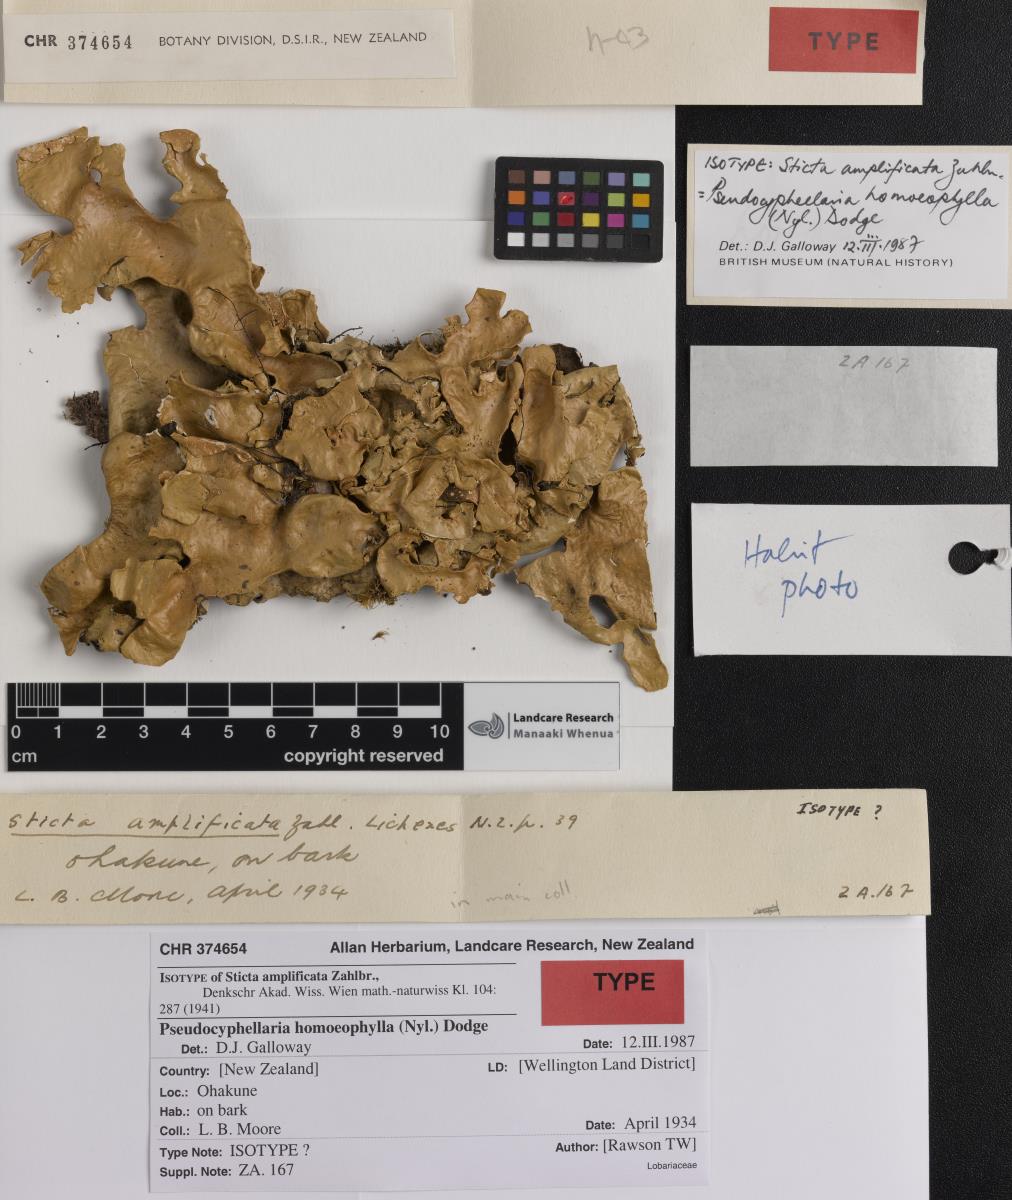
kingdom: Fungi
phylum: Ascomycota
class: Lecanoromycetes
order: Peltigerales
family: Lobariaceae
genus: Pseudocyphellaria
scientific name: Pseudocyphellaria homeophylla
